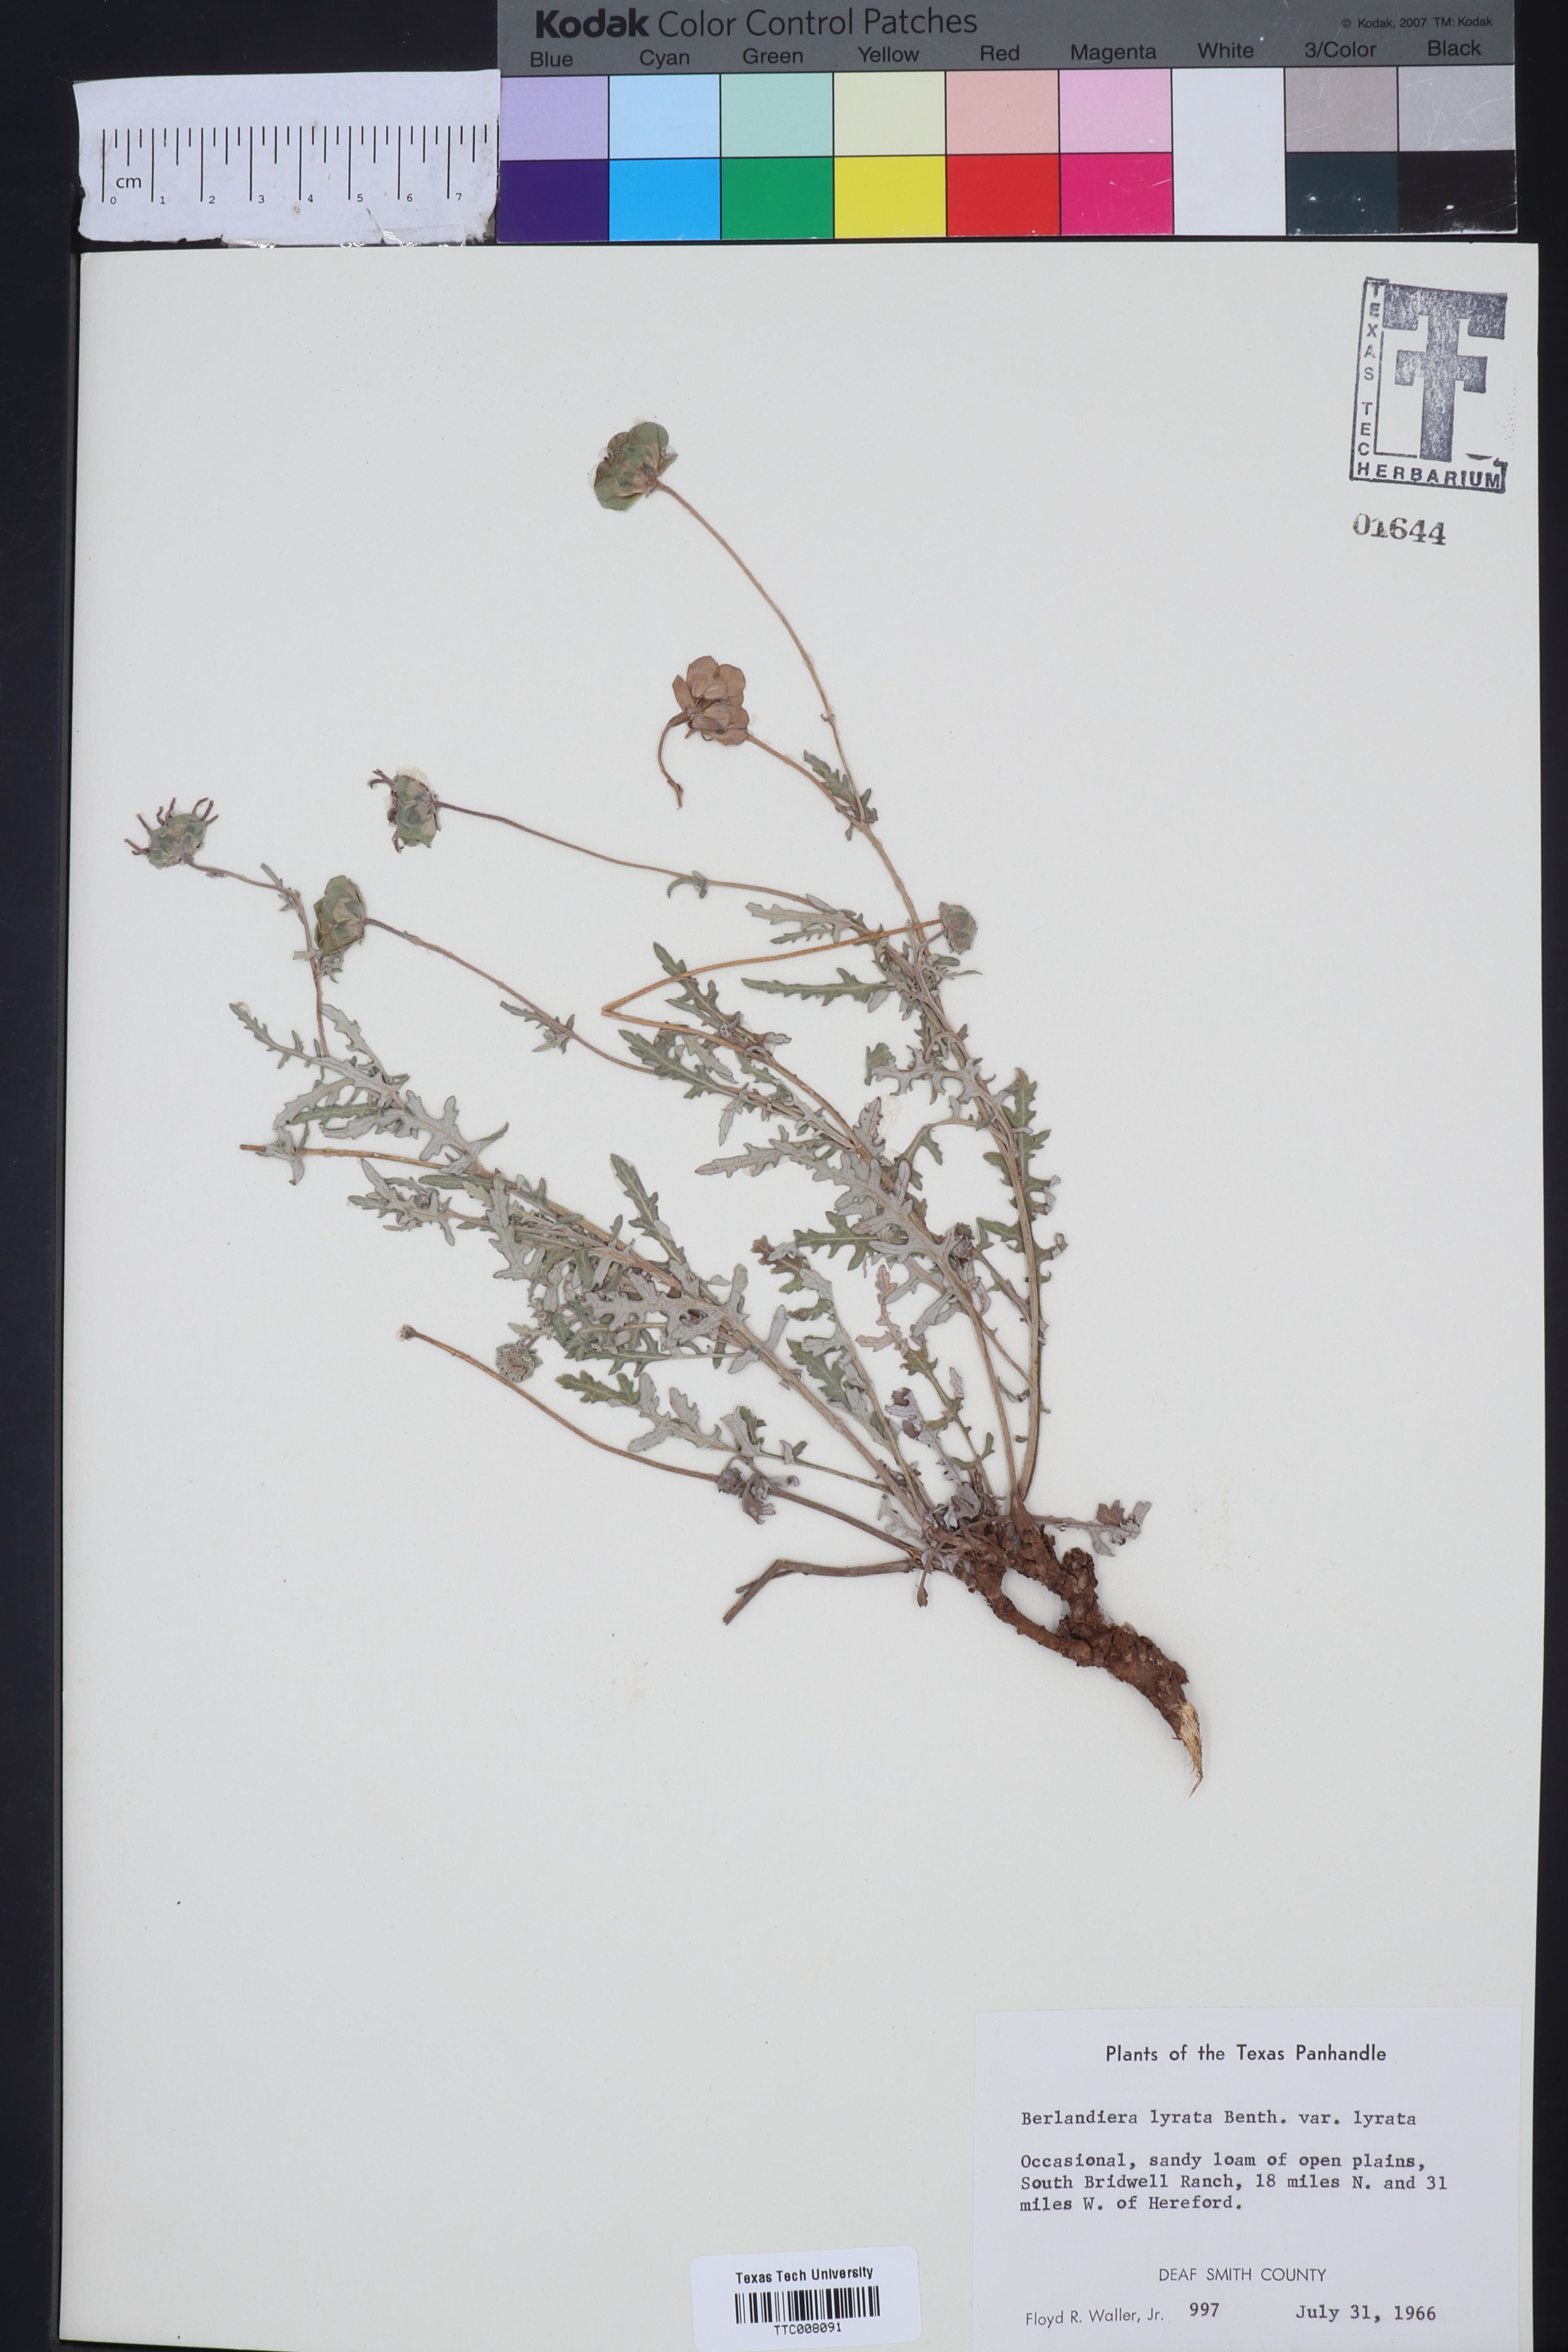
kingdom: Plantae
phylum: Tracheophyta
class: Magnoliopsida
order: Asterales
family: Asteraceae
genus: Berlandiera
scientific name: Berlandiera lyrata
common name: Chocolate-flower
